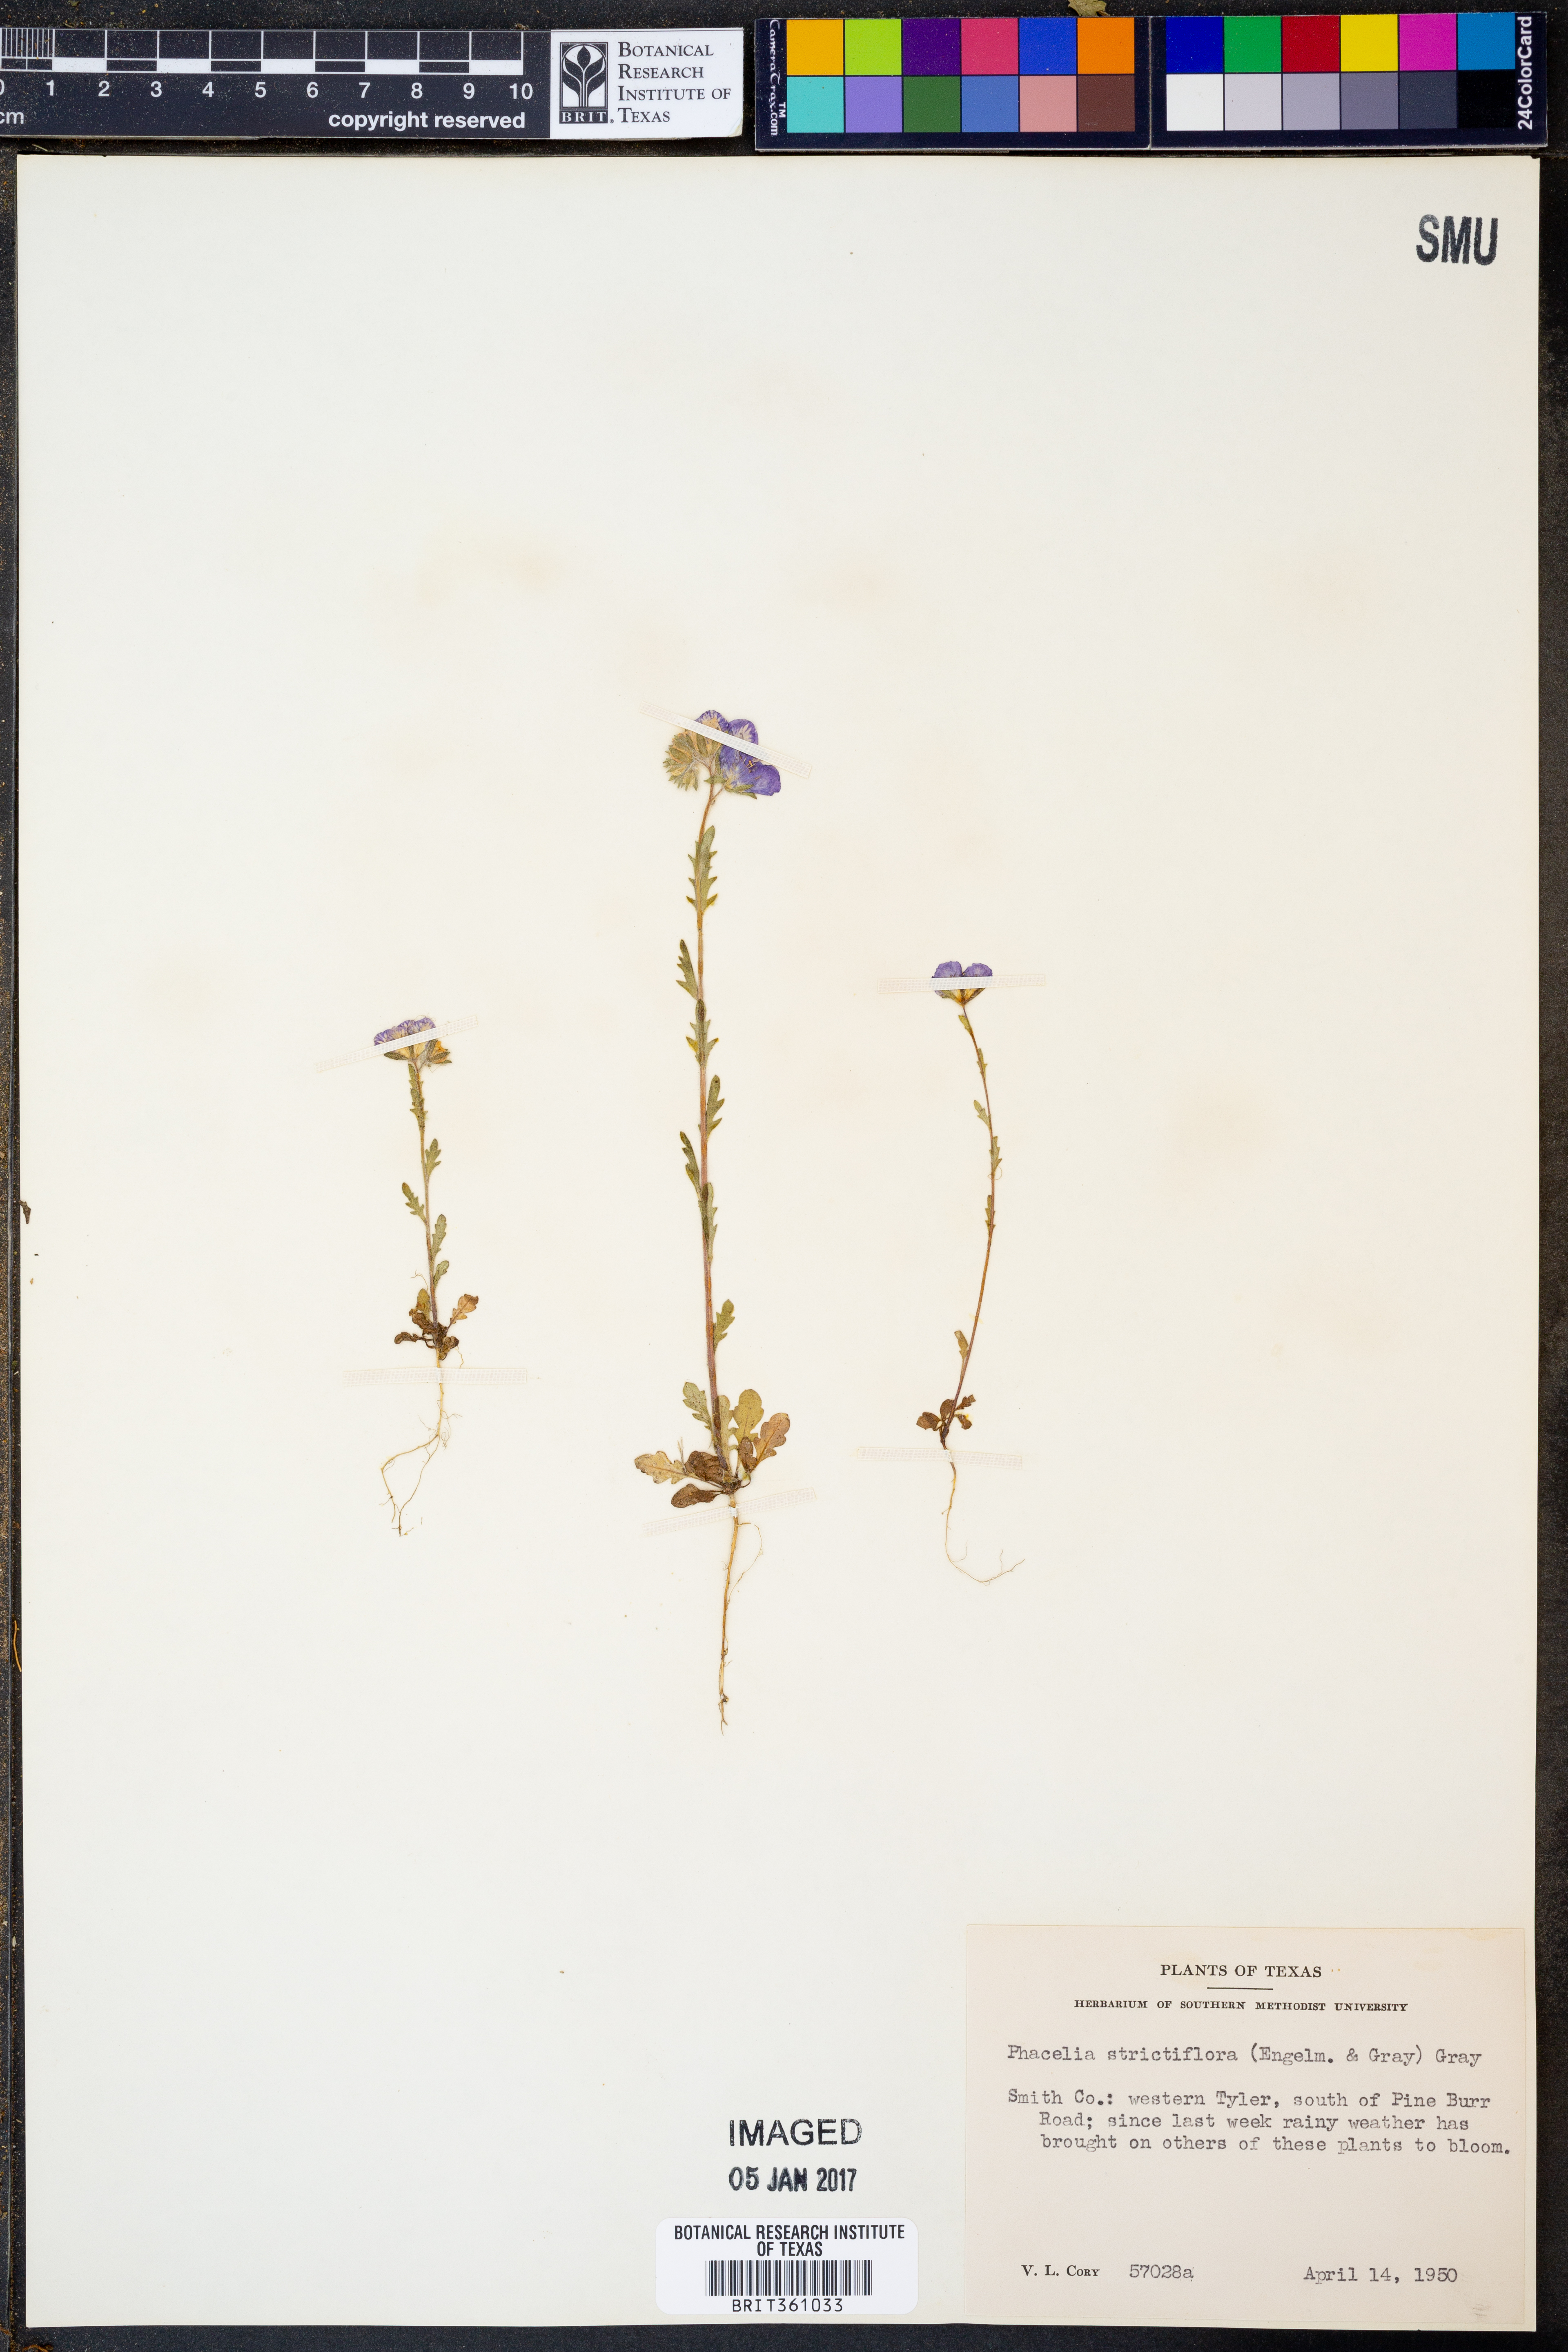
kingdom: Plantae
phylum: Tracheophyta
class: Magnoliopsida
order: Boraginales
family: Hydrophyllaceae
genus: Phacelia
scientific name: Phacelia strictiflora
